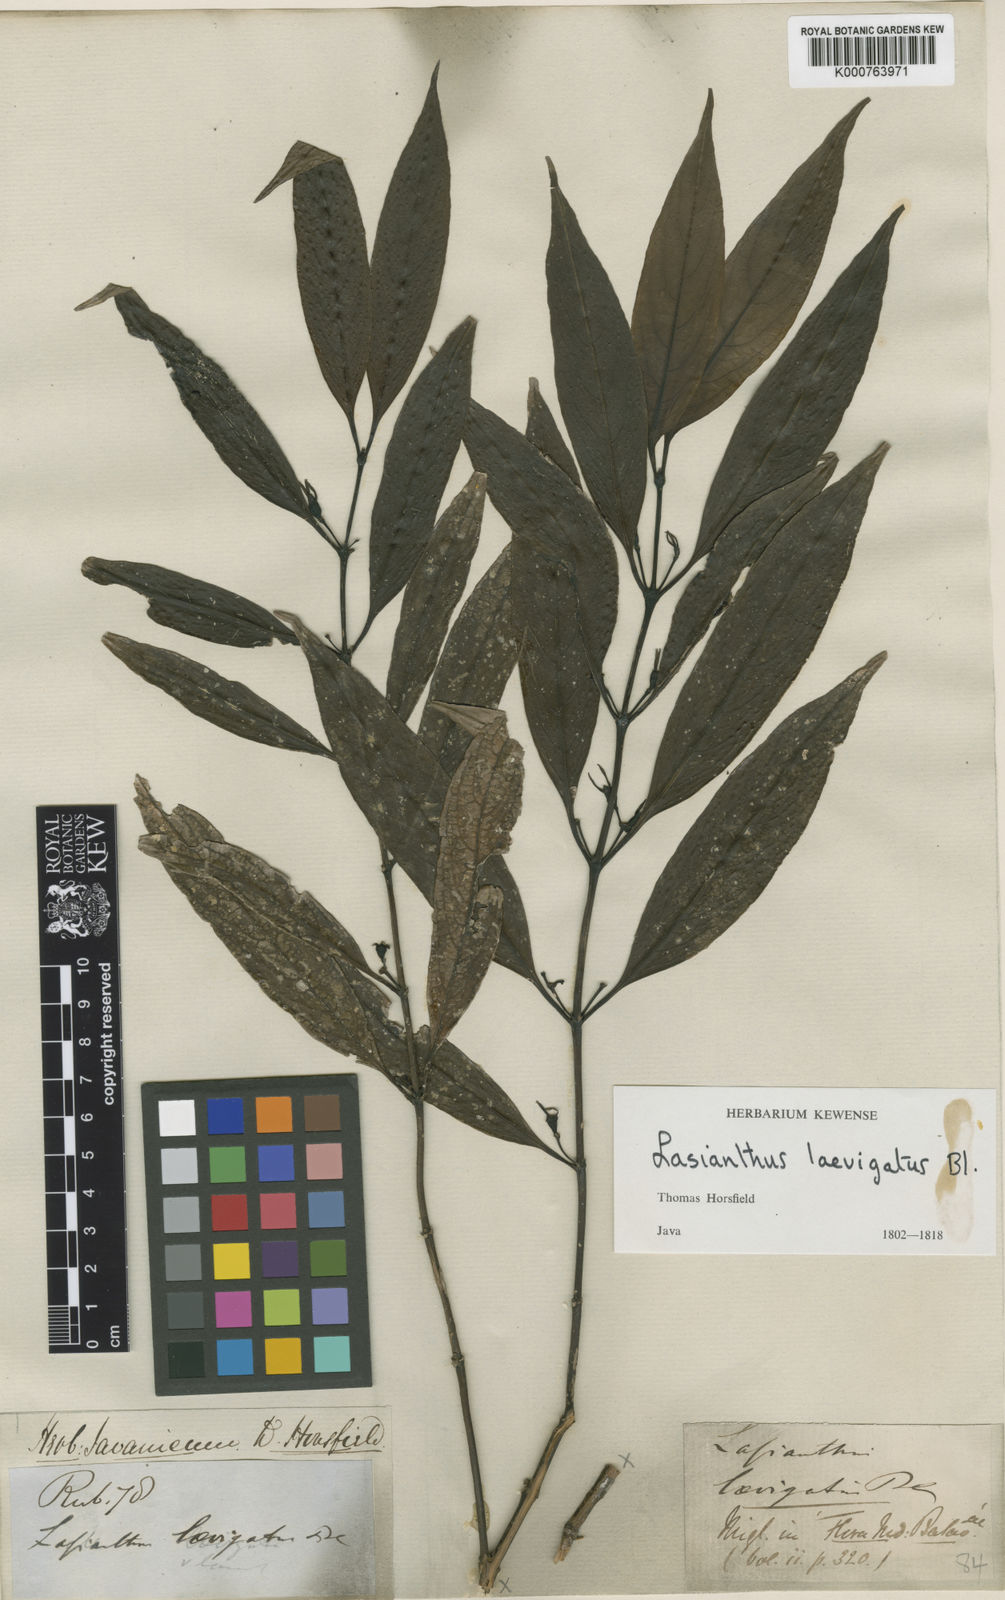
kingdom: Plantae
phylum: Tracheophyta
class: Magnoliopsida
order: Gentianales
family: Rubiaceae
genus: Lasianthus
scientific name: Lasianthus laevigatus
